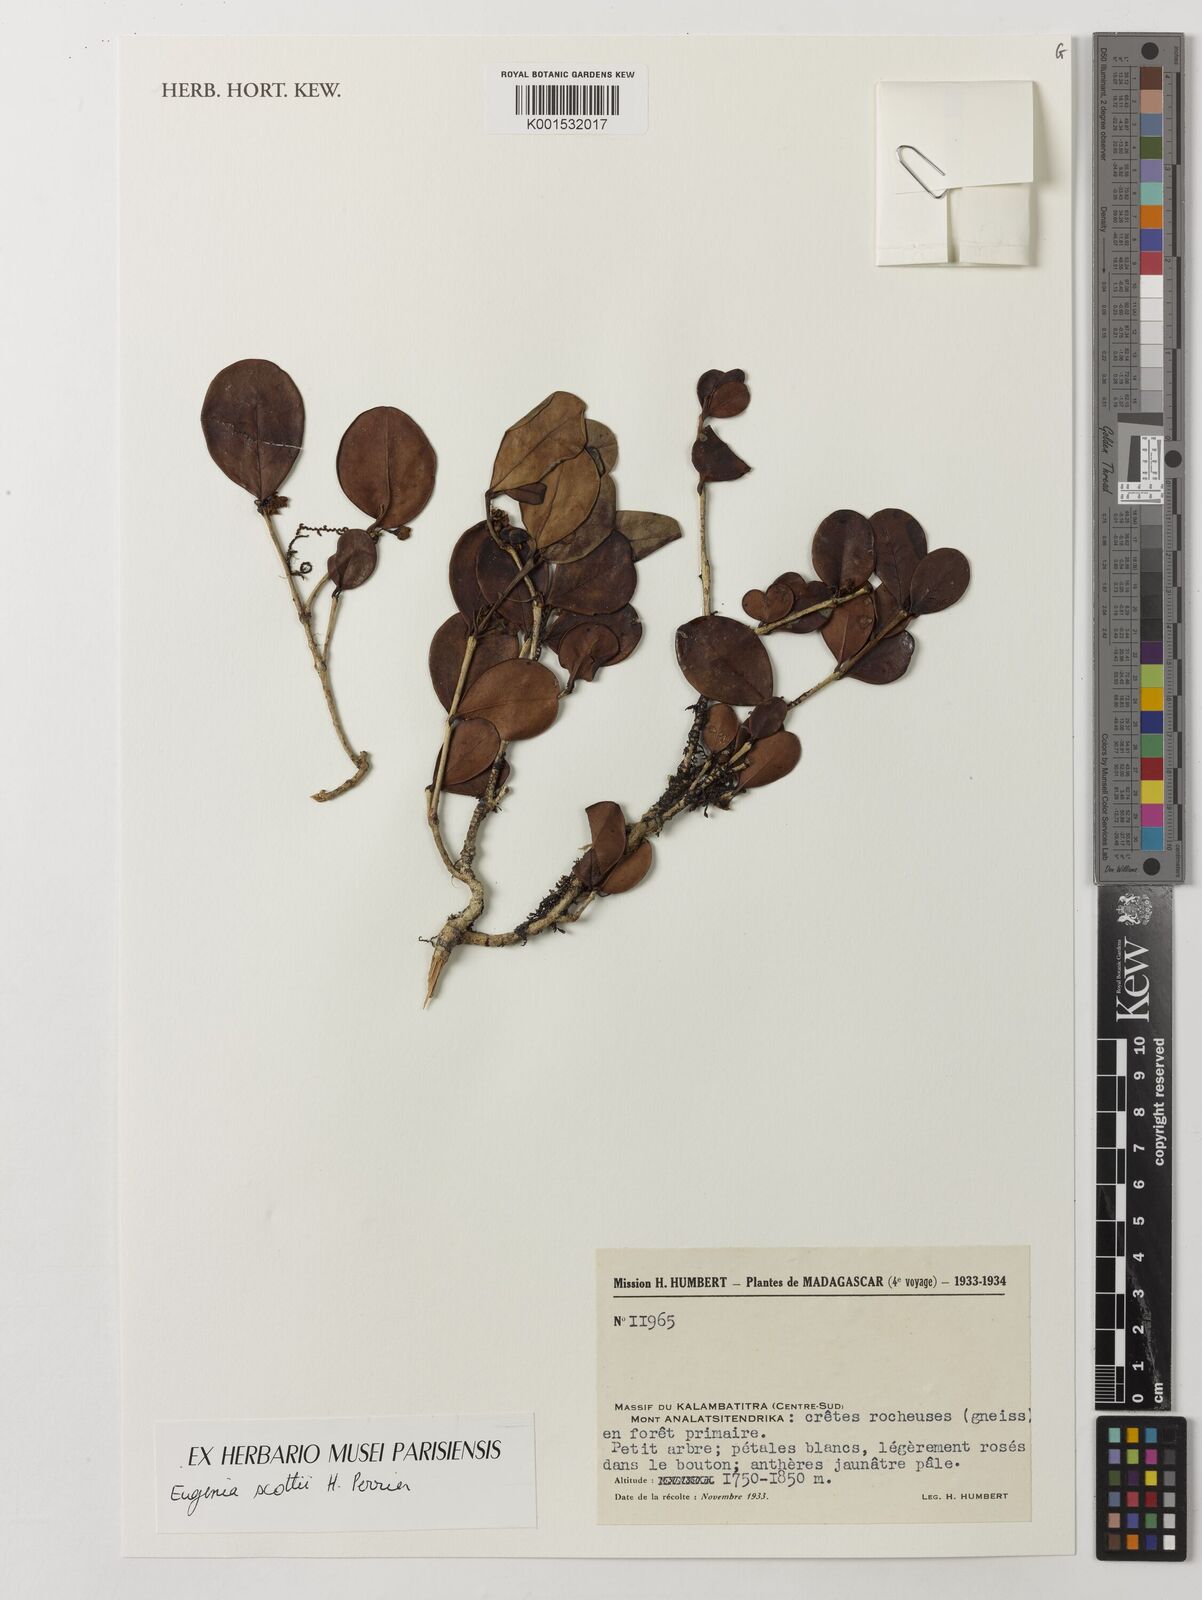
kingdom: Plantae
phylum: Tracheophyta
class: Magnoliopsida
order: Myrtales
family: Myrtaceae
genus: Eugenia
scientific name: Eugenia scottii
